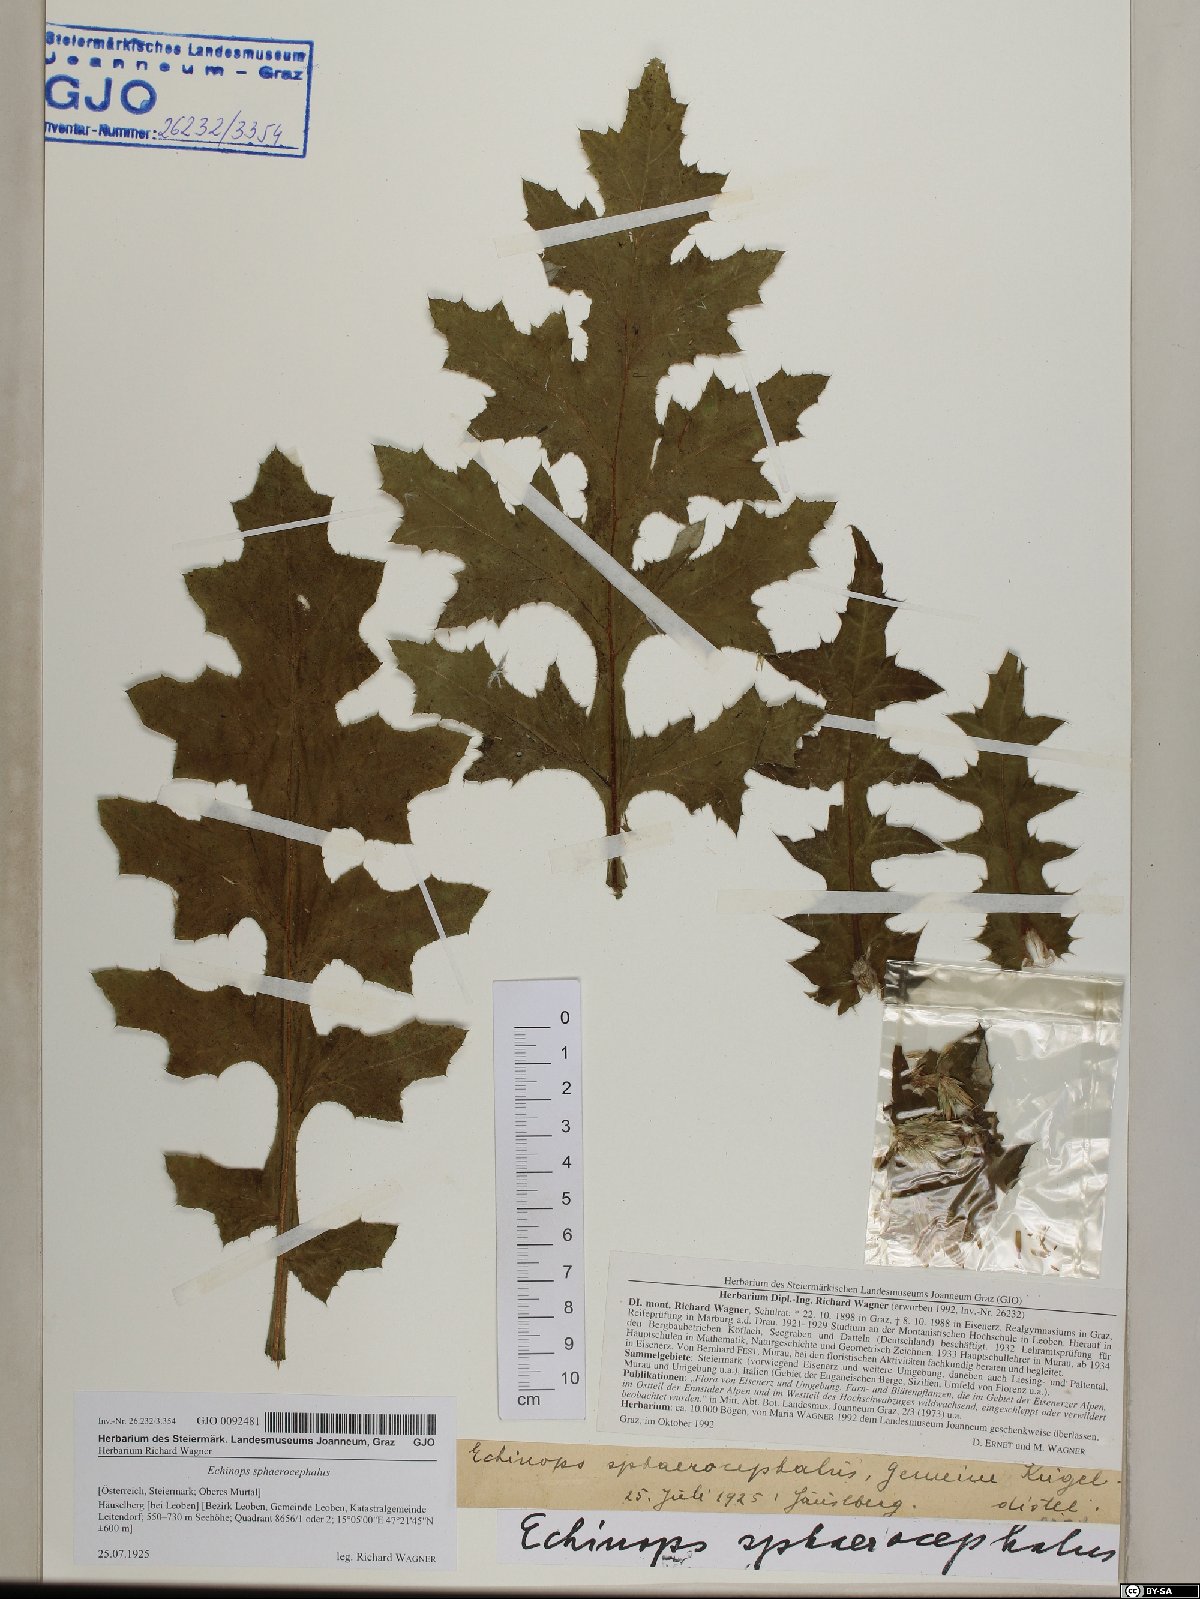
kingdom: Plantae
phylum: Tracheophyta
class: Magnoliopsida
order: Asterales
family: Asteraceae
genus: Echinops
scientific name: Echinops sphaerocephalus
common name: Glandular globe-thistle
